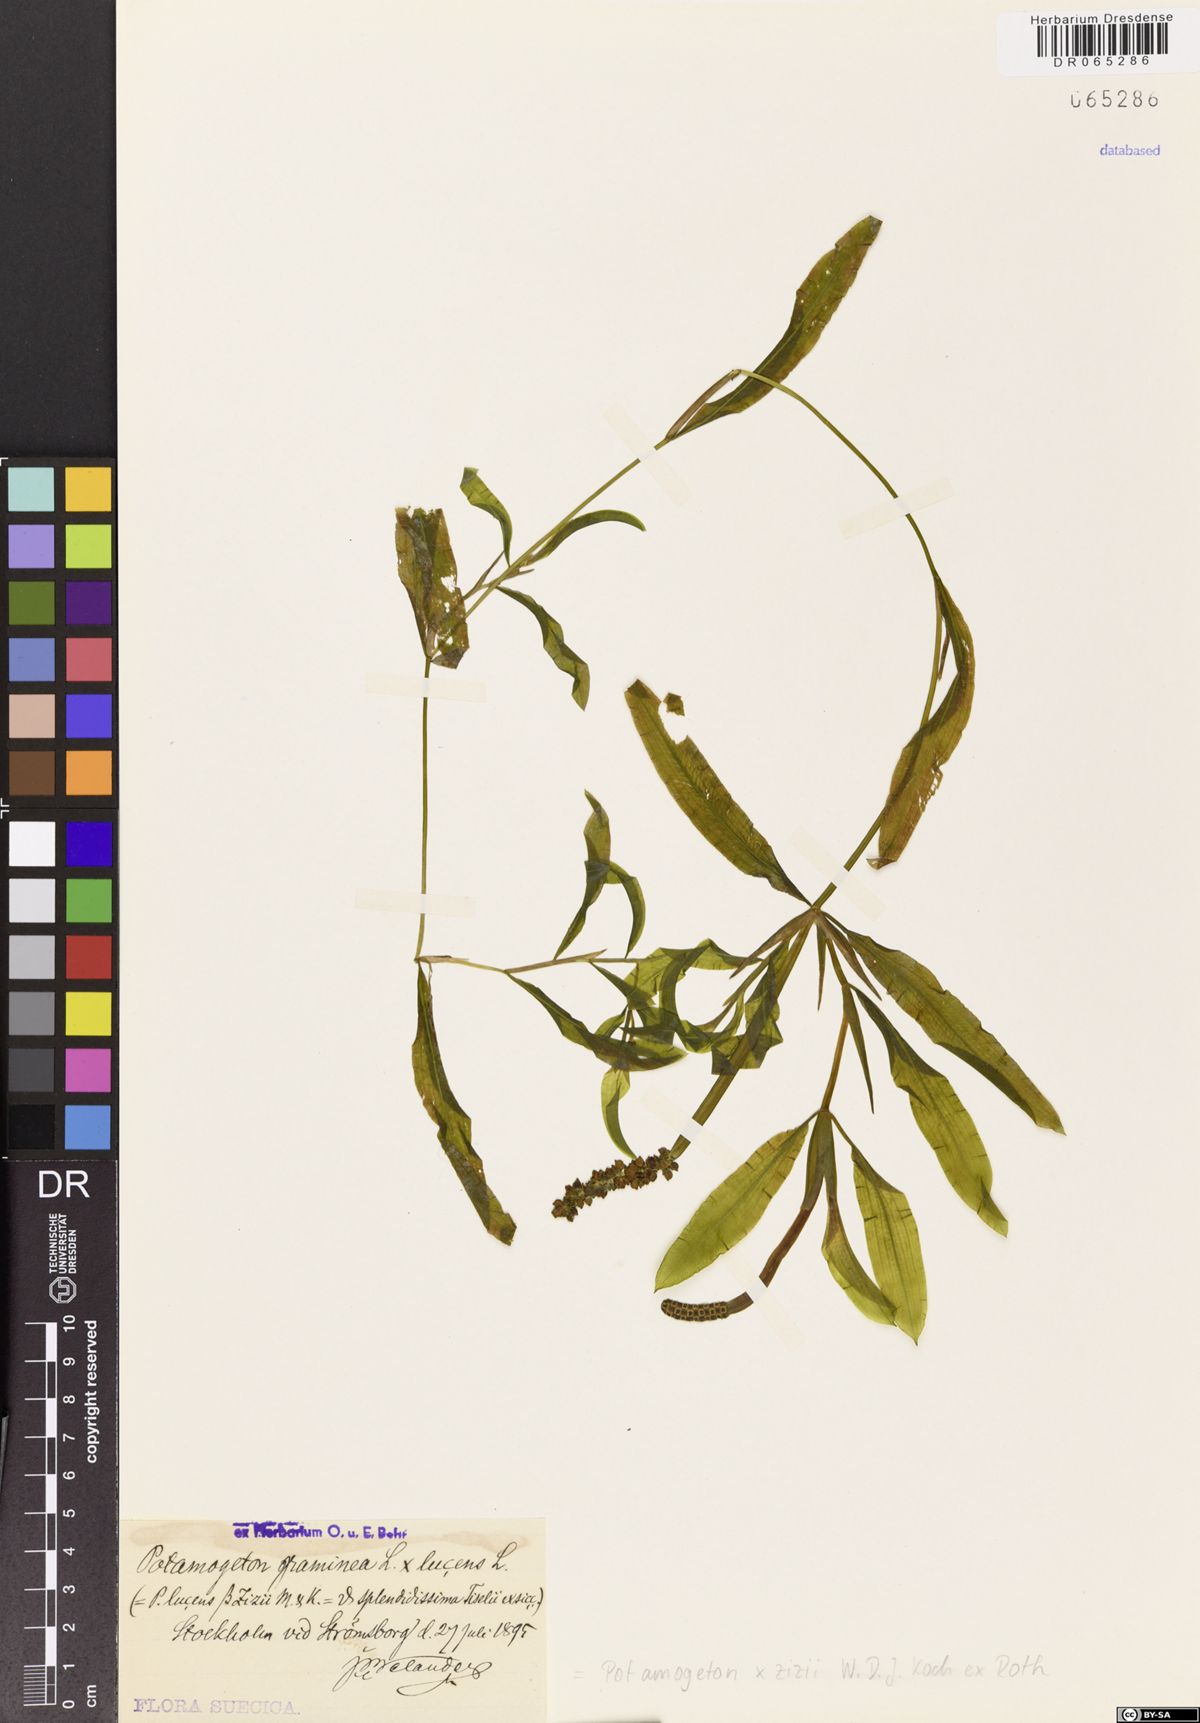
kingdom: Plantae
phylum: Tracheophyta
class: Liliopsida
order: Alismatales
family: Potamogetonaceae
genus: Potamogeton
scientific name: Potamogeton angustifolius
